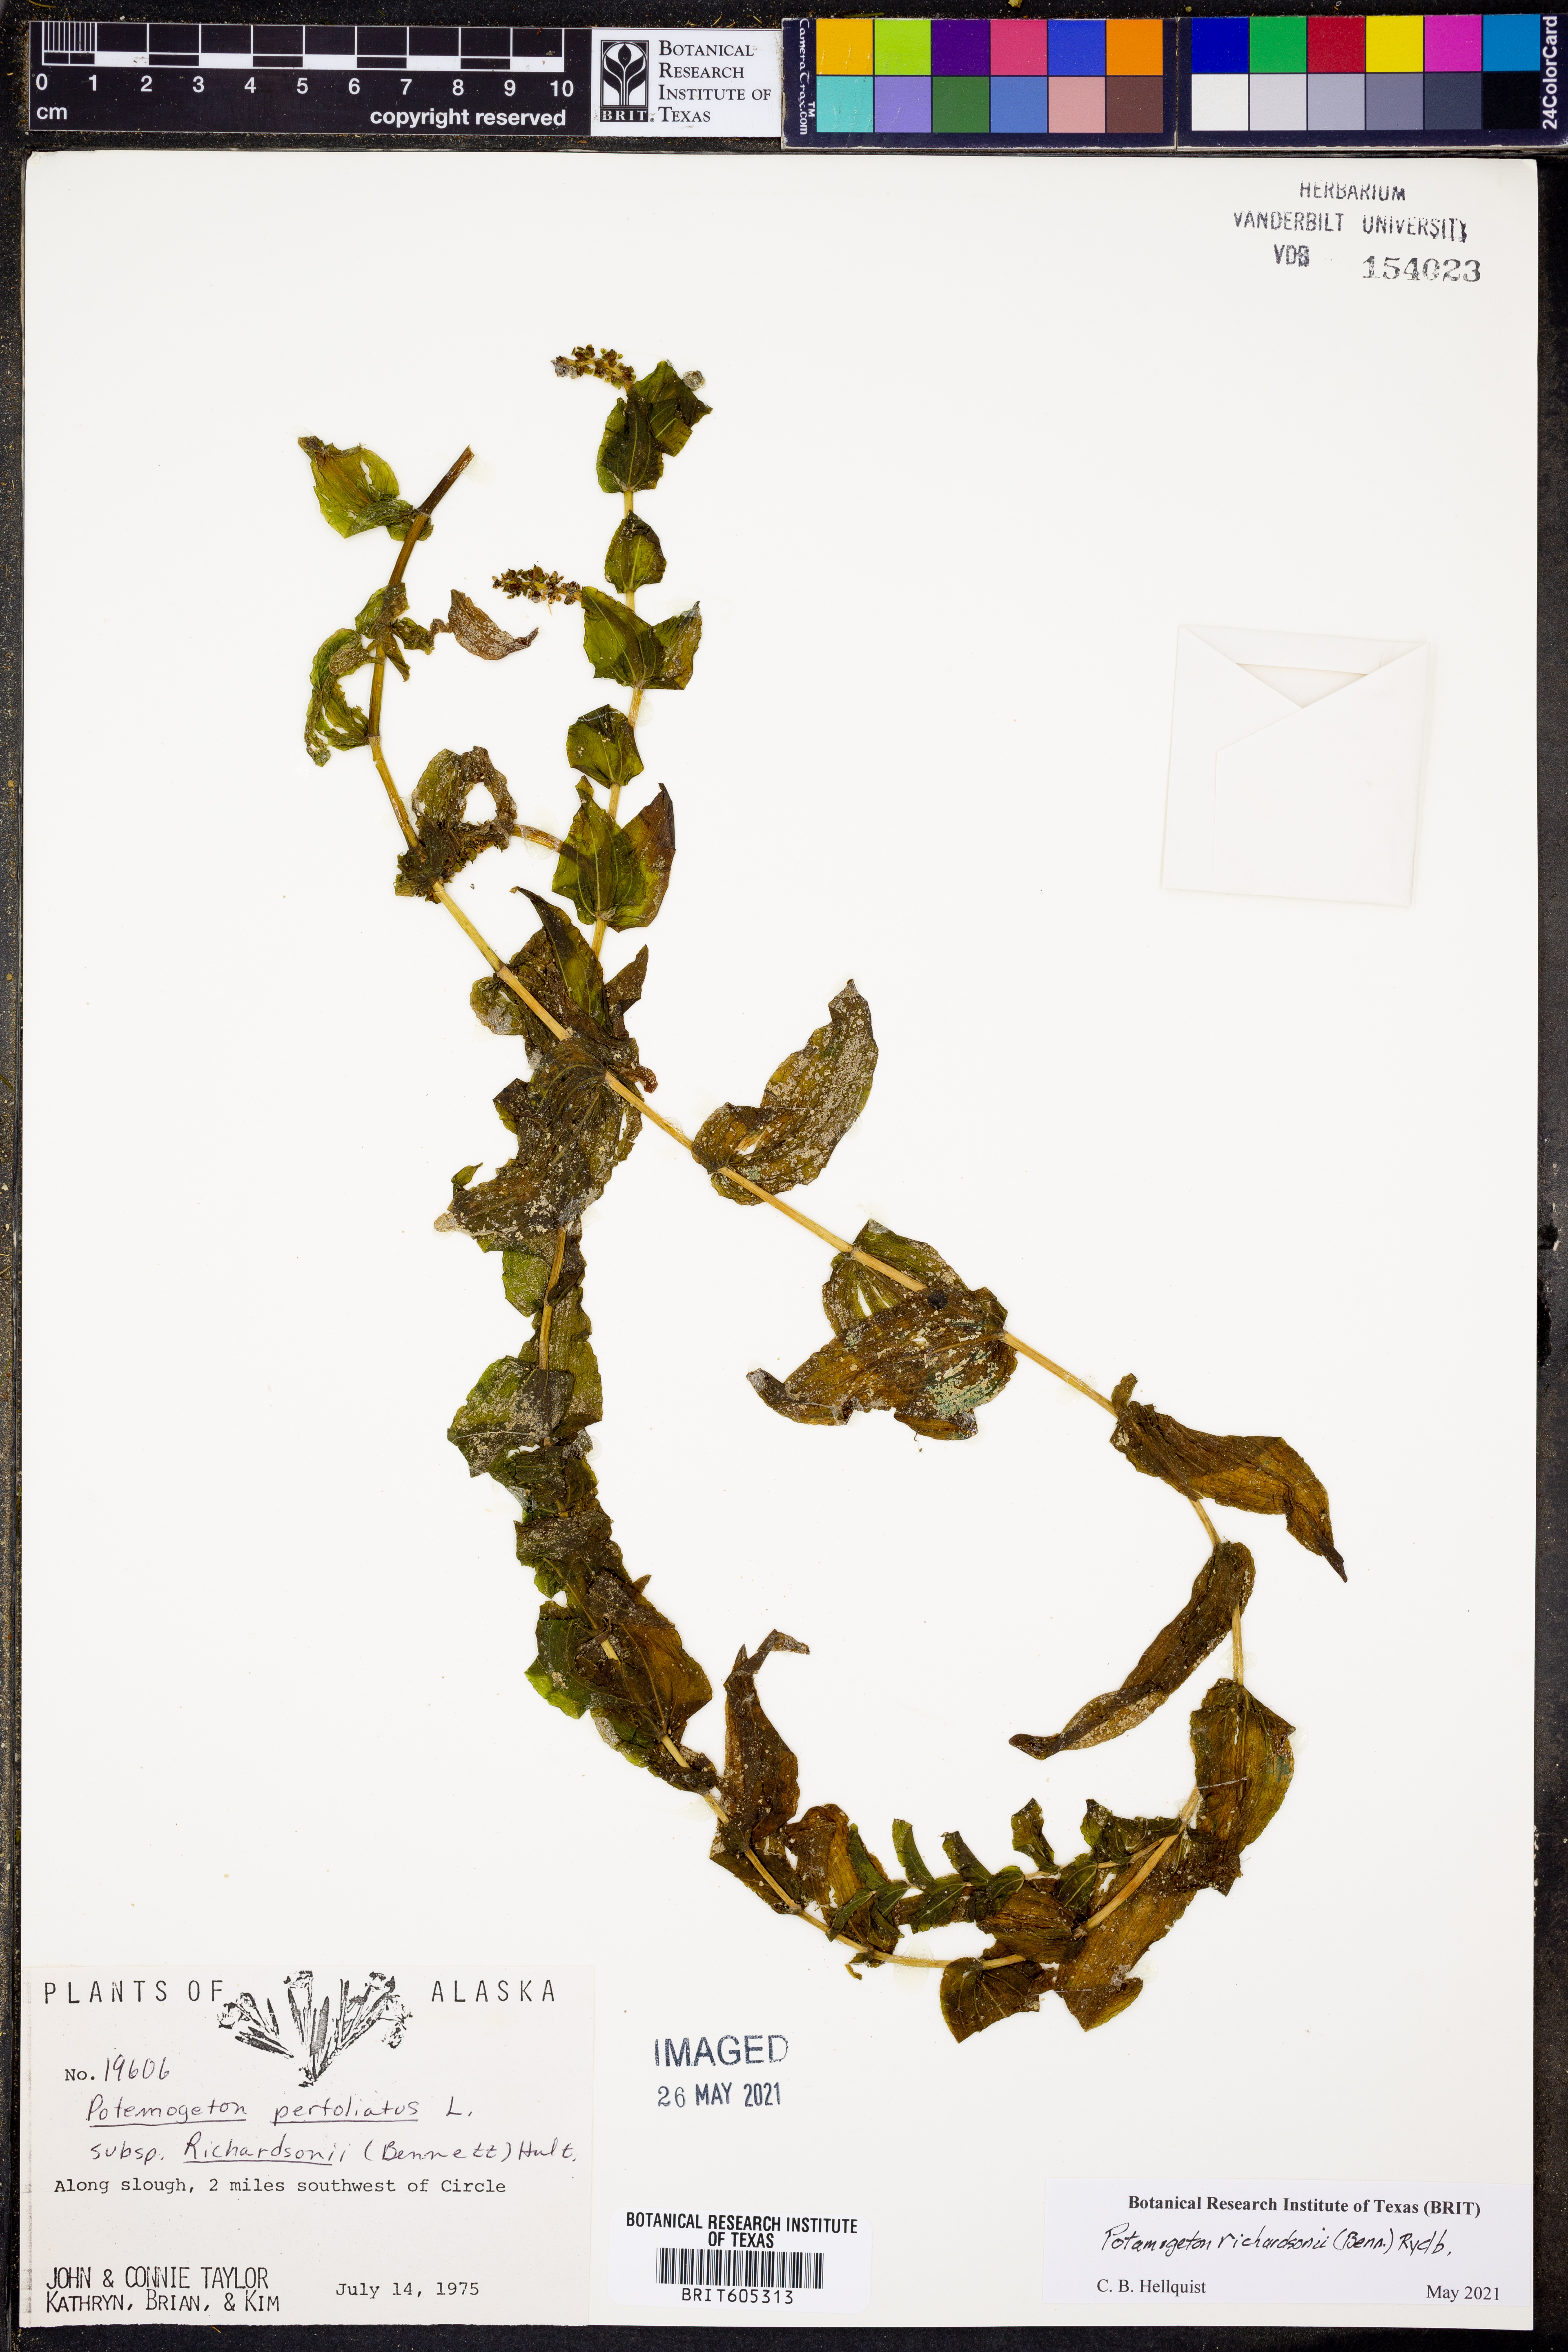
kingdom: Plantae
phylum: Tracheophyta
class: Liliopsida
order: Alismatales
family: Potamogetonaceae
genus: Potamogeton
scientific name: Potamogeton richardsonii
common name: Richardson's pondweed
